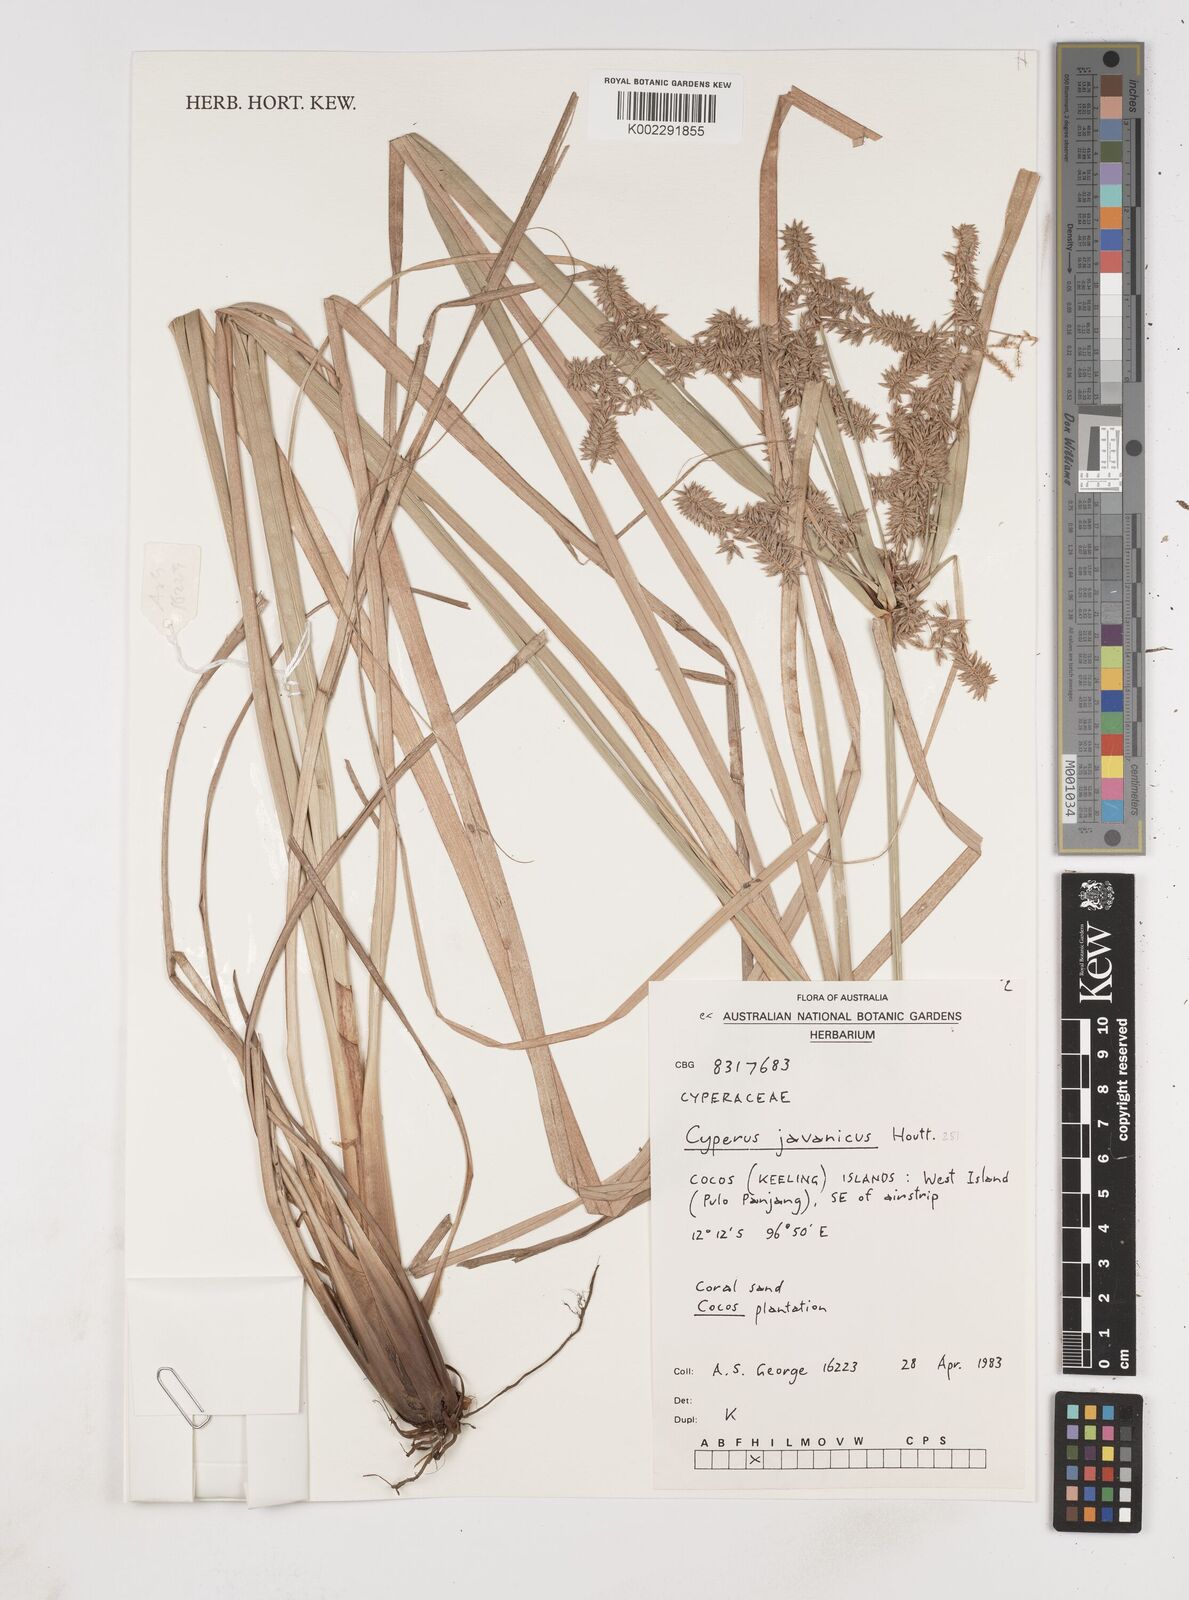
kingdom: Plantae
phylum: Tracheophyta
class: Liliopsida
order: Poales
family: Cyperaceae
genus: Cyperus
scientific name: Cyperus javanicus
